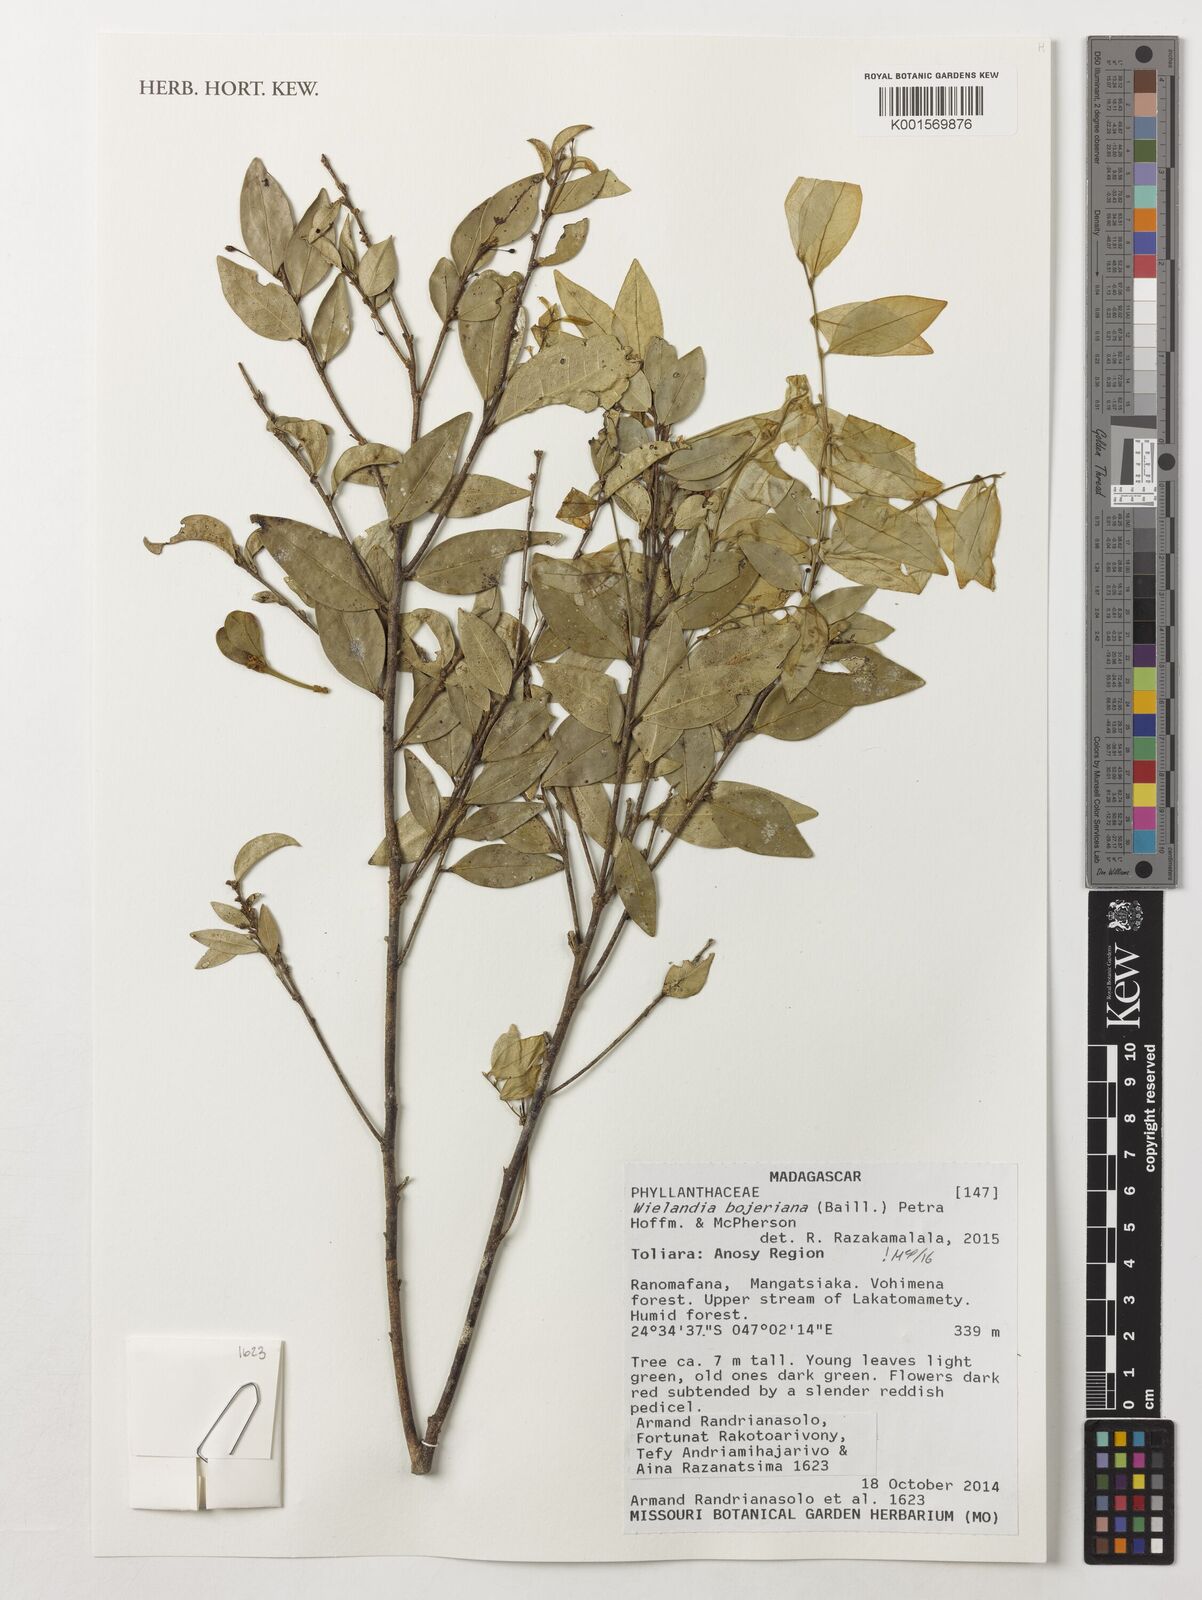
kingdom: Plantae
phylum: Tracheophyta
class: Magnoliopsida
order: Malpighiales
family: Phyllanthaceae
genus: Wielandia
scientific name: Wielandia bojeriana
